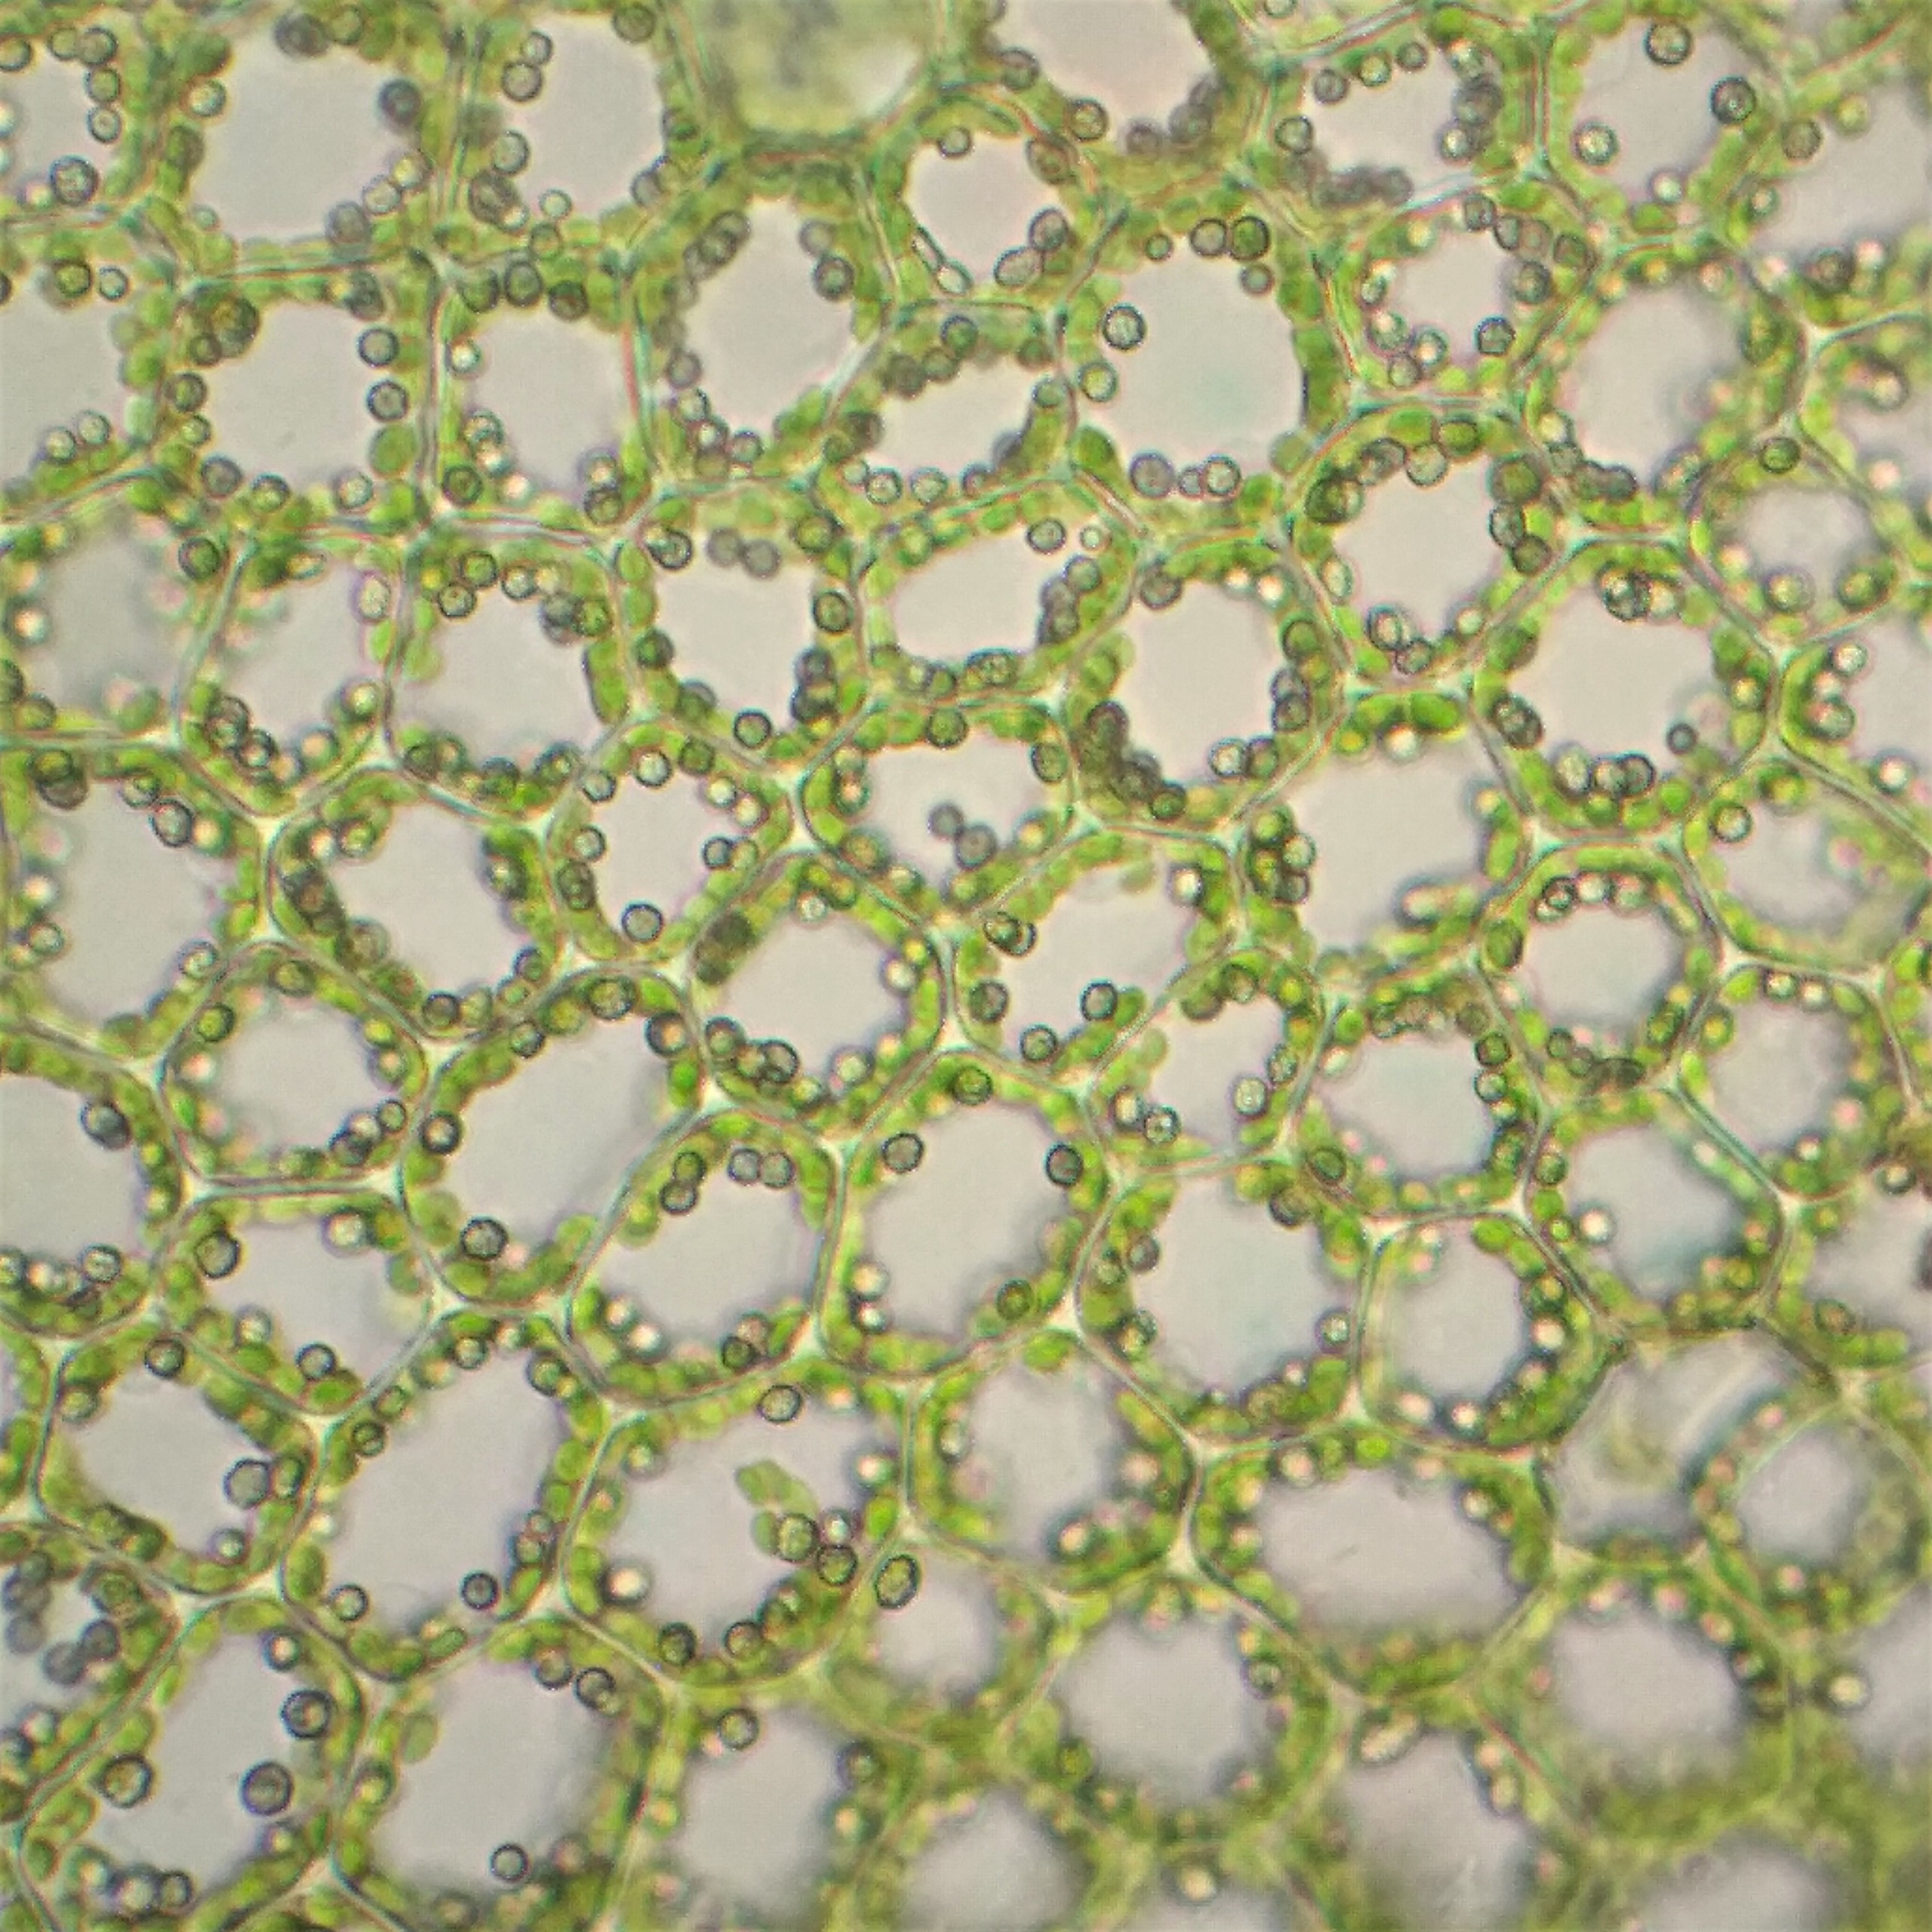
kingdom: Plantae
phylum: Marchantiophyta
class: Jungermanniopsida
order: Jungermanniales
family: Lophoziaceae
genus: Lophoziopsis
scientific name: Lophoziopsis excisa
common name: Tandet foldbæger
